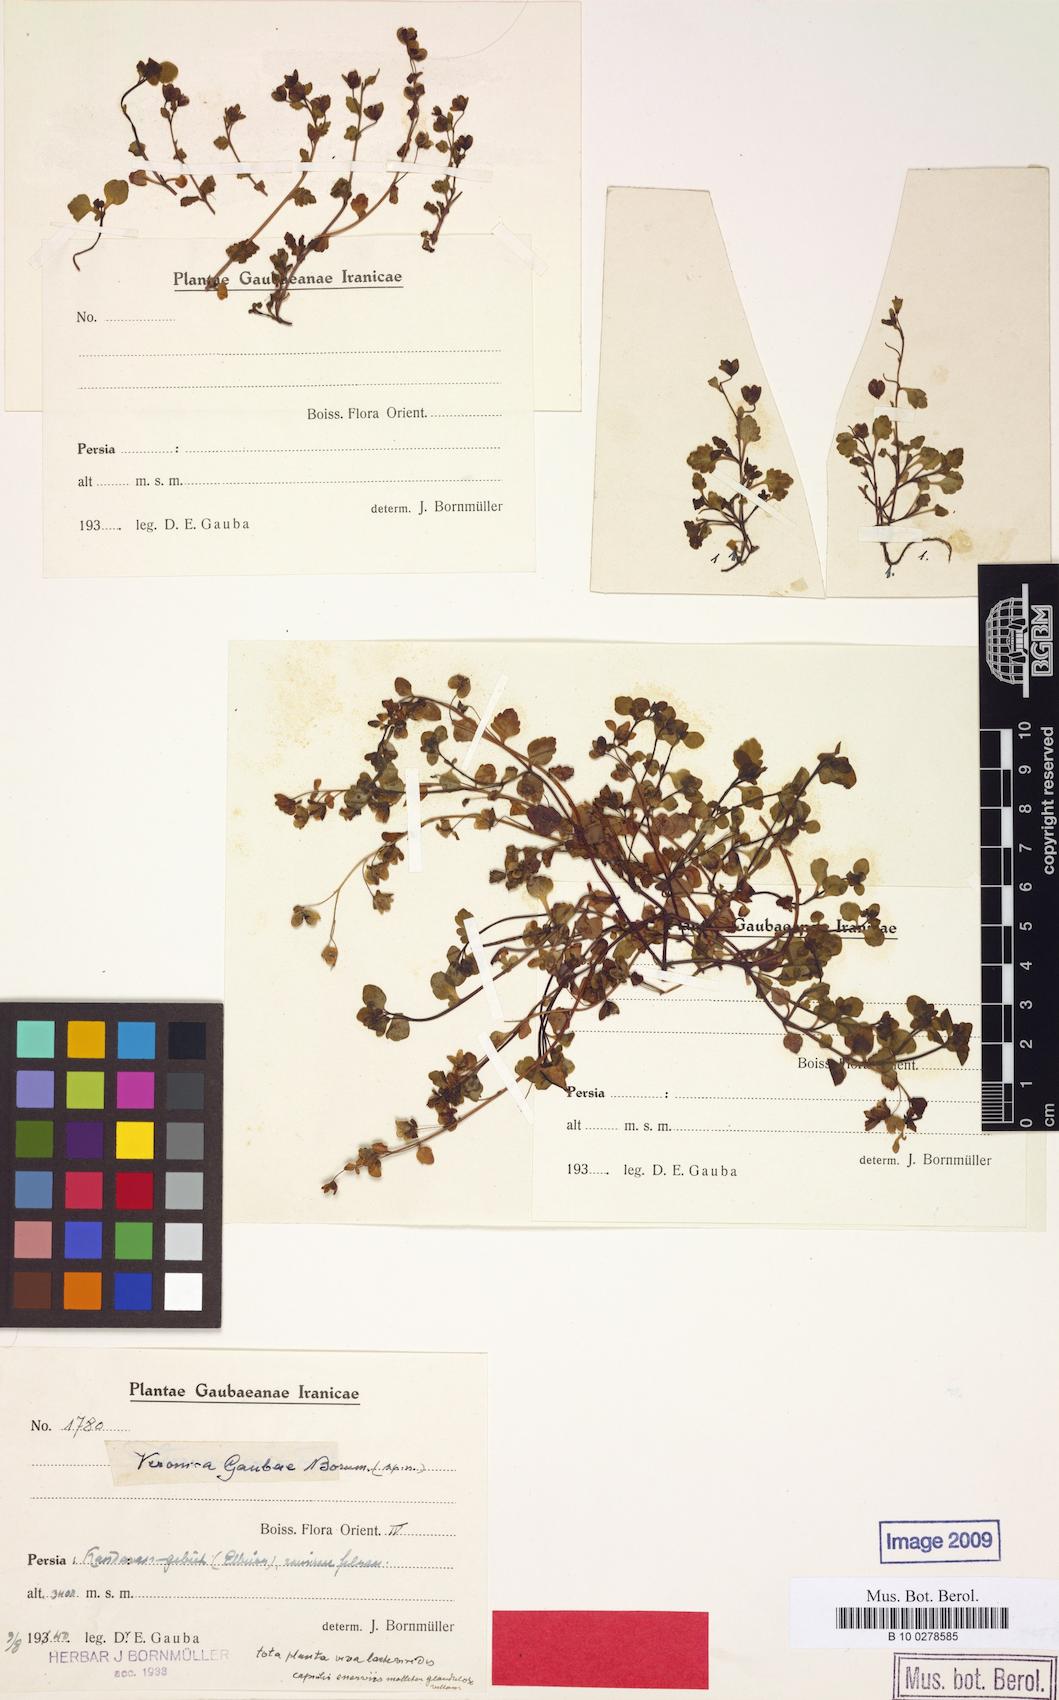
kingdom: Plantae
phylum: Tracheophyta
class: Magnoliopsida
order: Lamiales
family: Plantaginaceae
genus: Veronica
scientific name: Veronica gaubae
